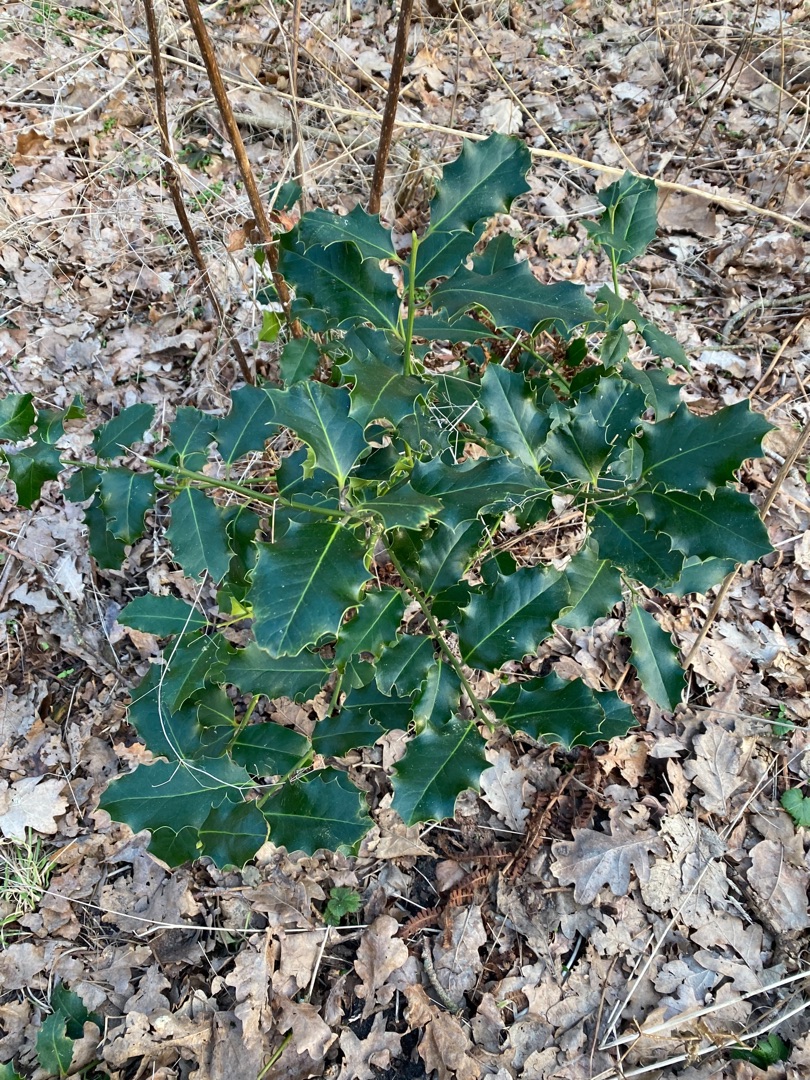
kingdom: Plantae
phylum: Tracheophyta
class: Magnoliopsida
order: Aquifoliales
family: Aquifoliaceae
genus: Ilex
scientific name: Ilex aquifolium
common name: Kristtorn
